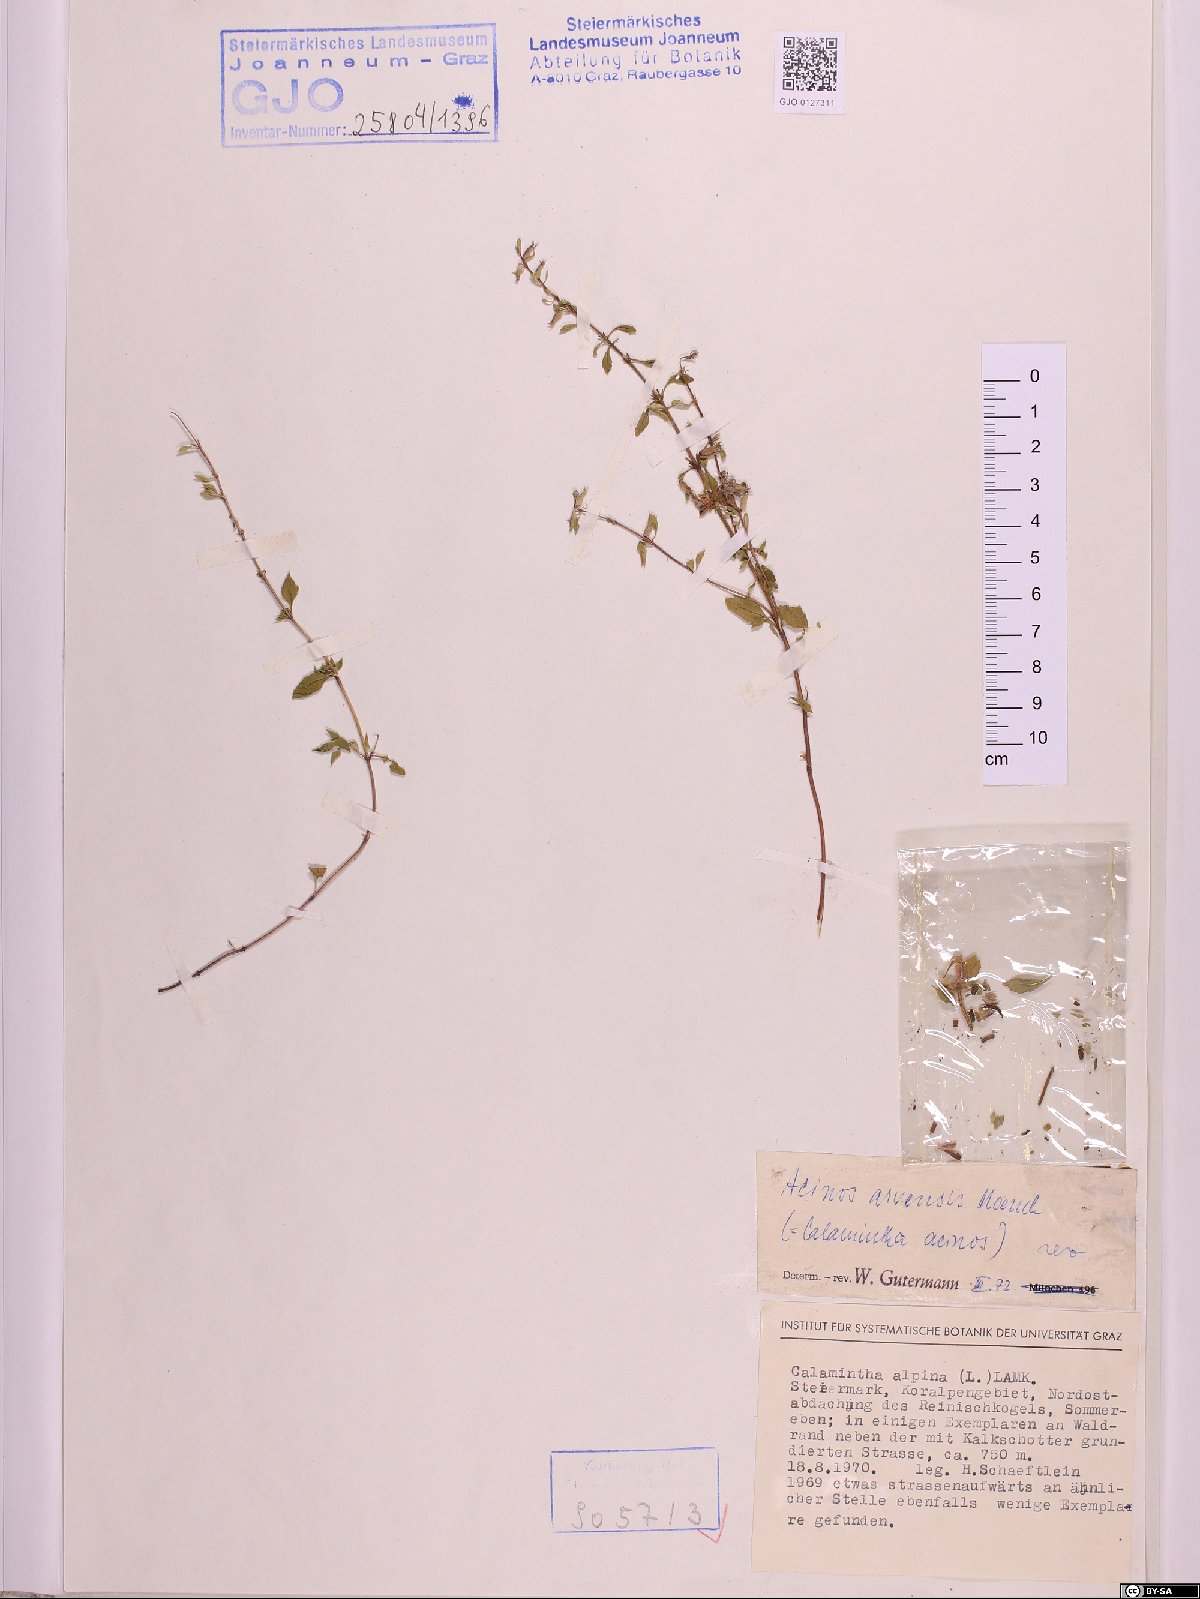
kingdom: Plantae
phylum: Tracheophyta
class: Magnoliopsida
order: Lamiales
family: Lamiaceae
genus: Clinopodium
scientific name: Clinopodium acinos
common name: Basil thyme
